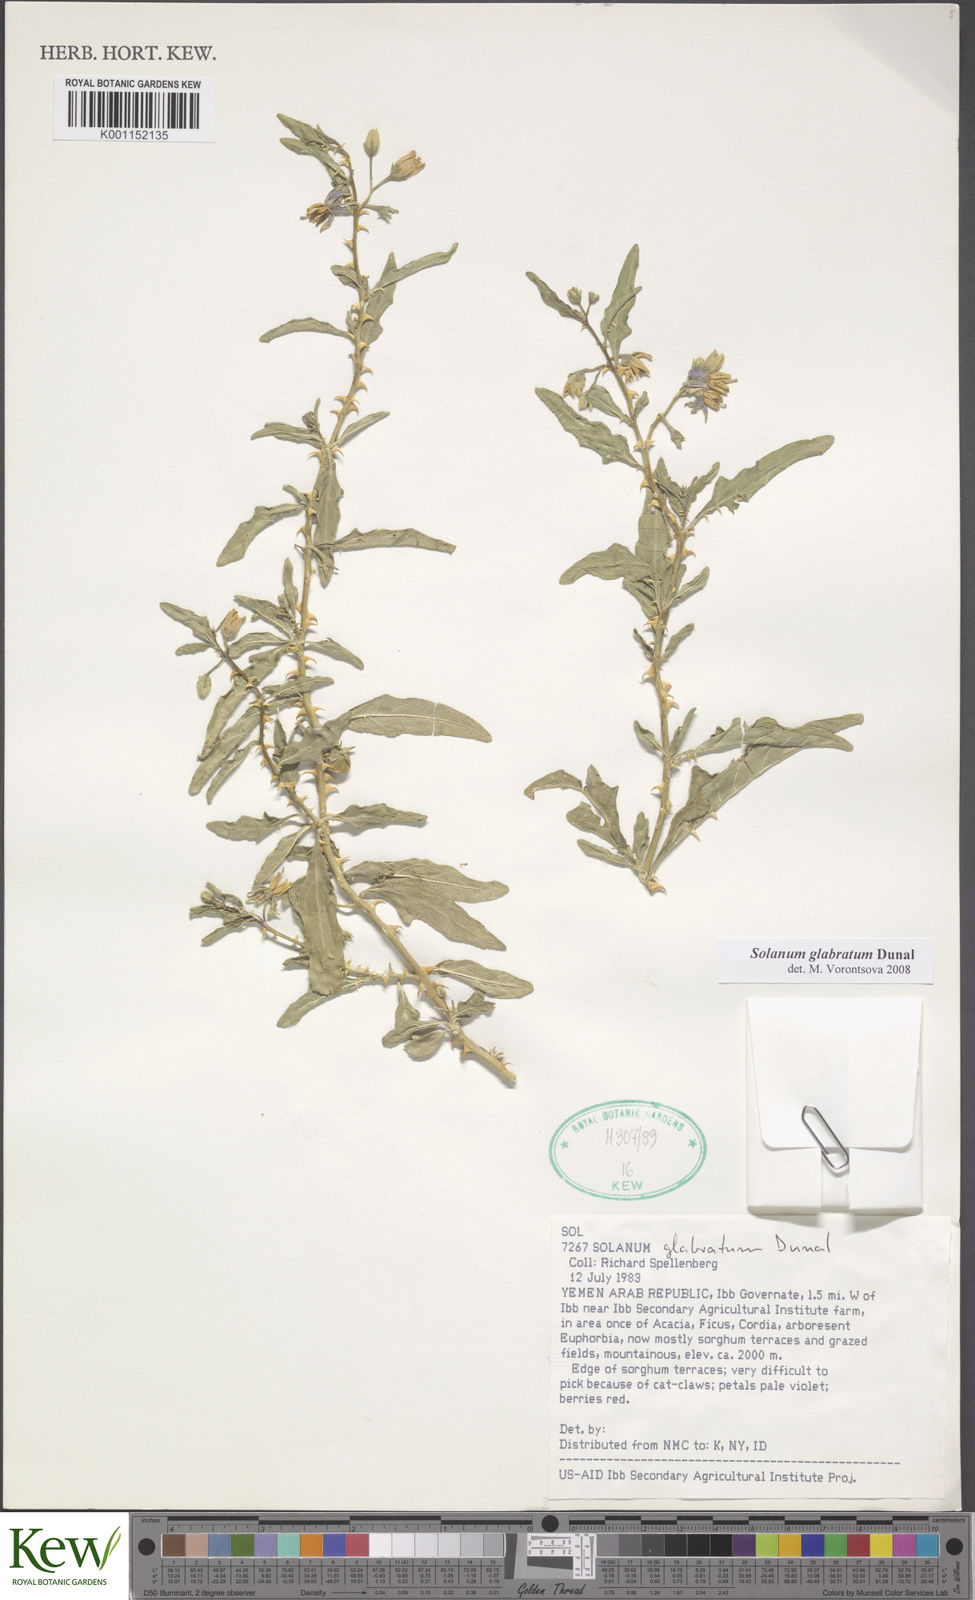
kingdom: Plantae
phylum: Tracheophyta
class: Magnoliopsida
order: Solanales
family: Solanaceae
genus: Solanum
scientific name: Solanum glabratum
